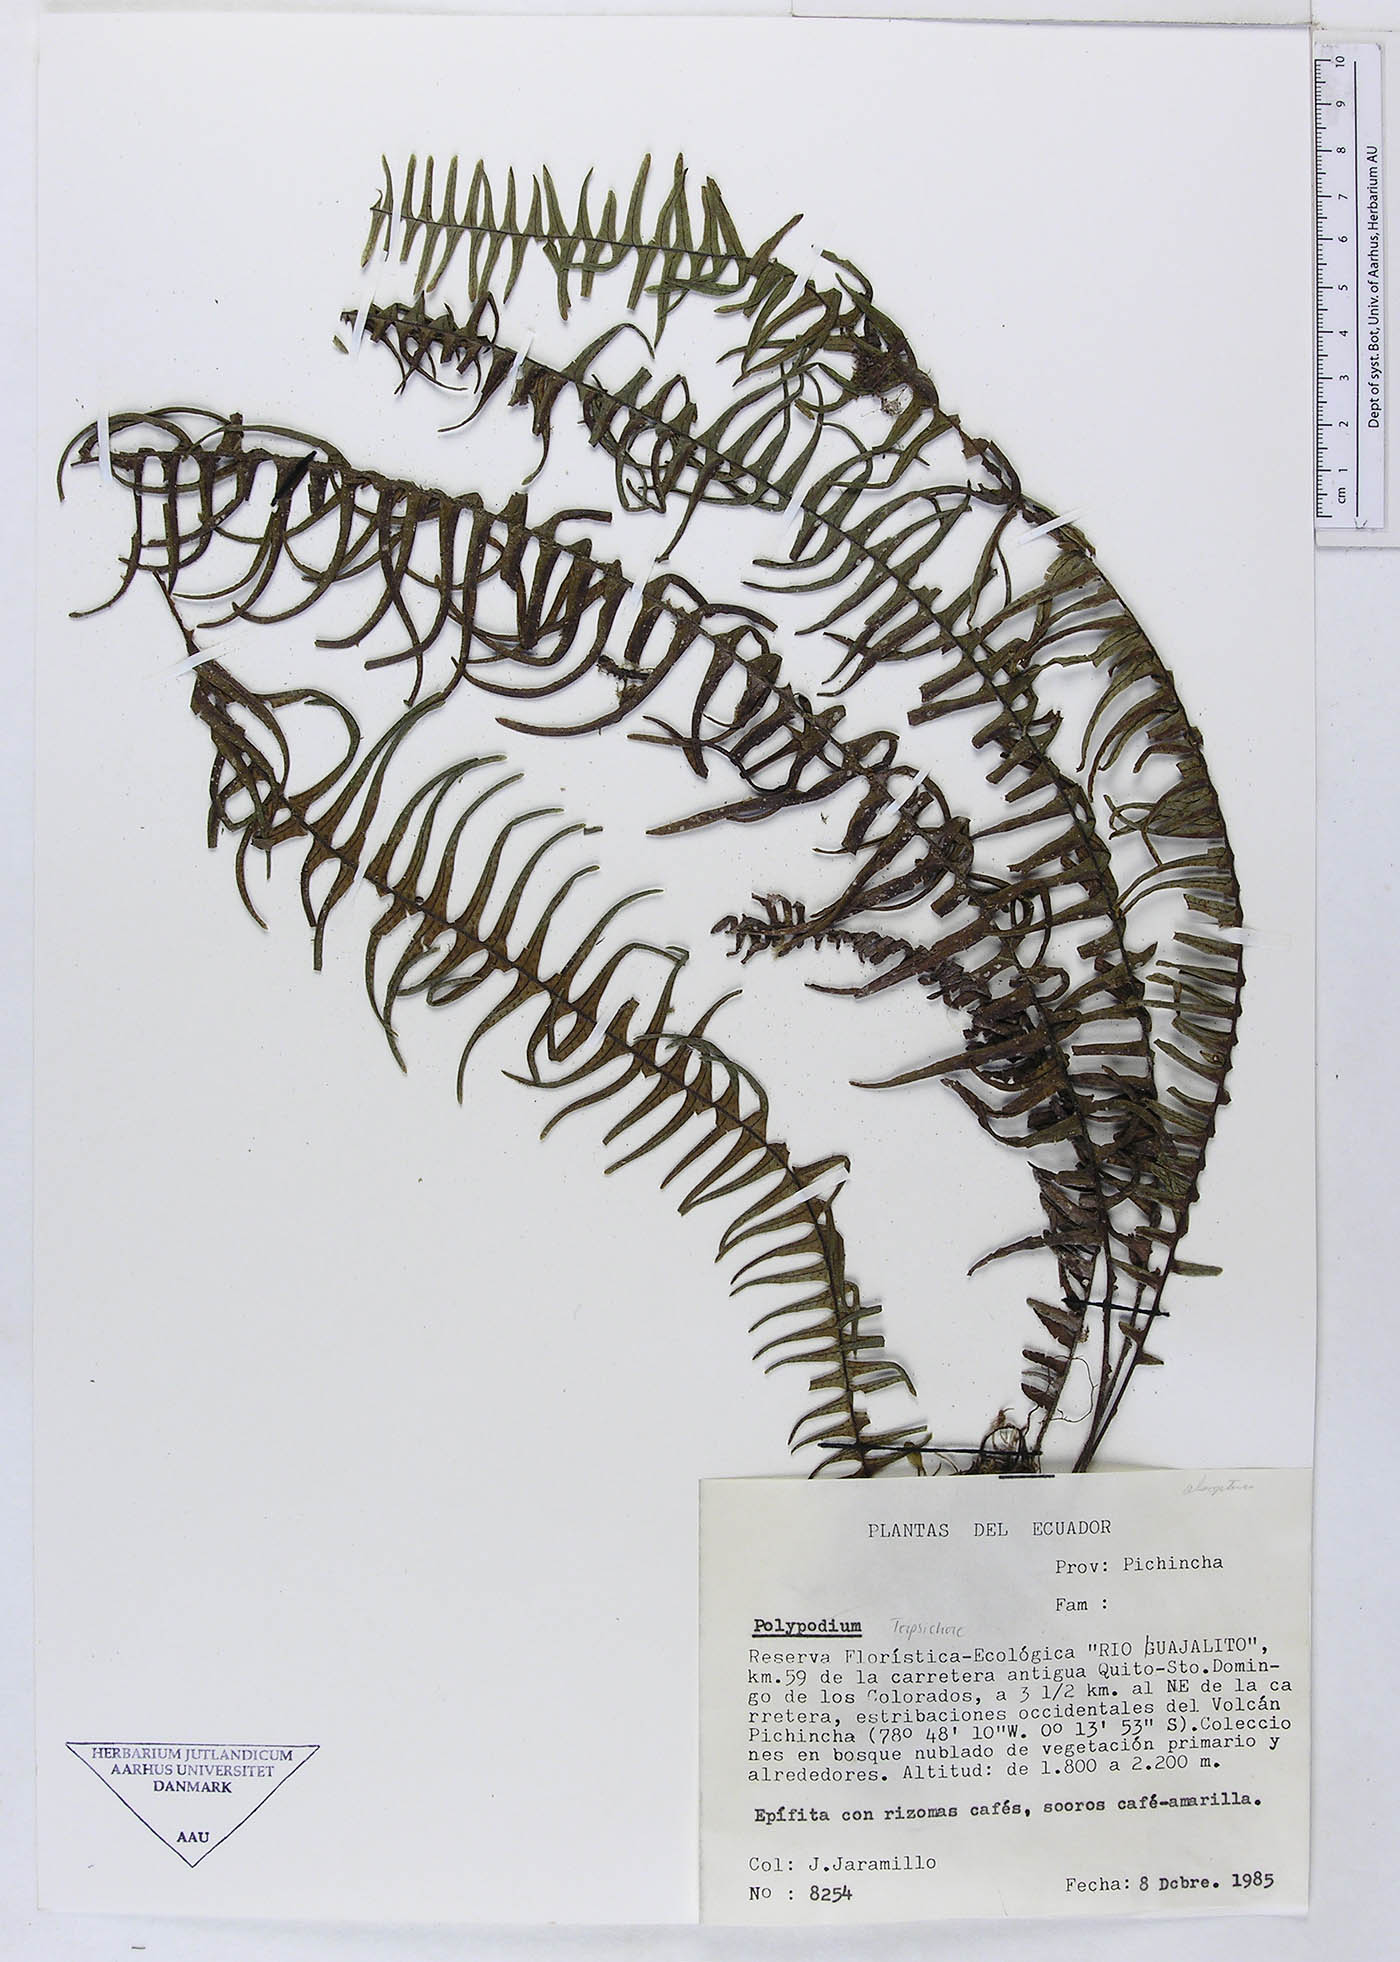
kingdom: Plantae
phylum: Tracheophyta
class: Polypodiopsida
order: Polypodiales
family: Polypodiaceae
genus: Mycopteris
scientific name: Mycopteris semihirsuta
